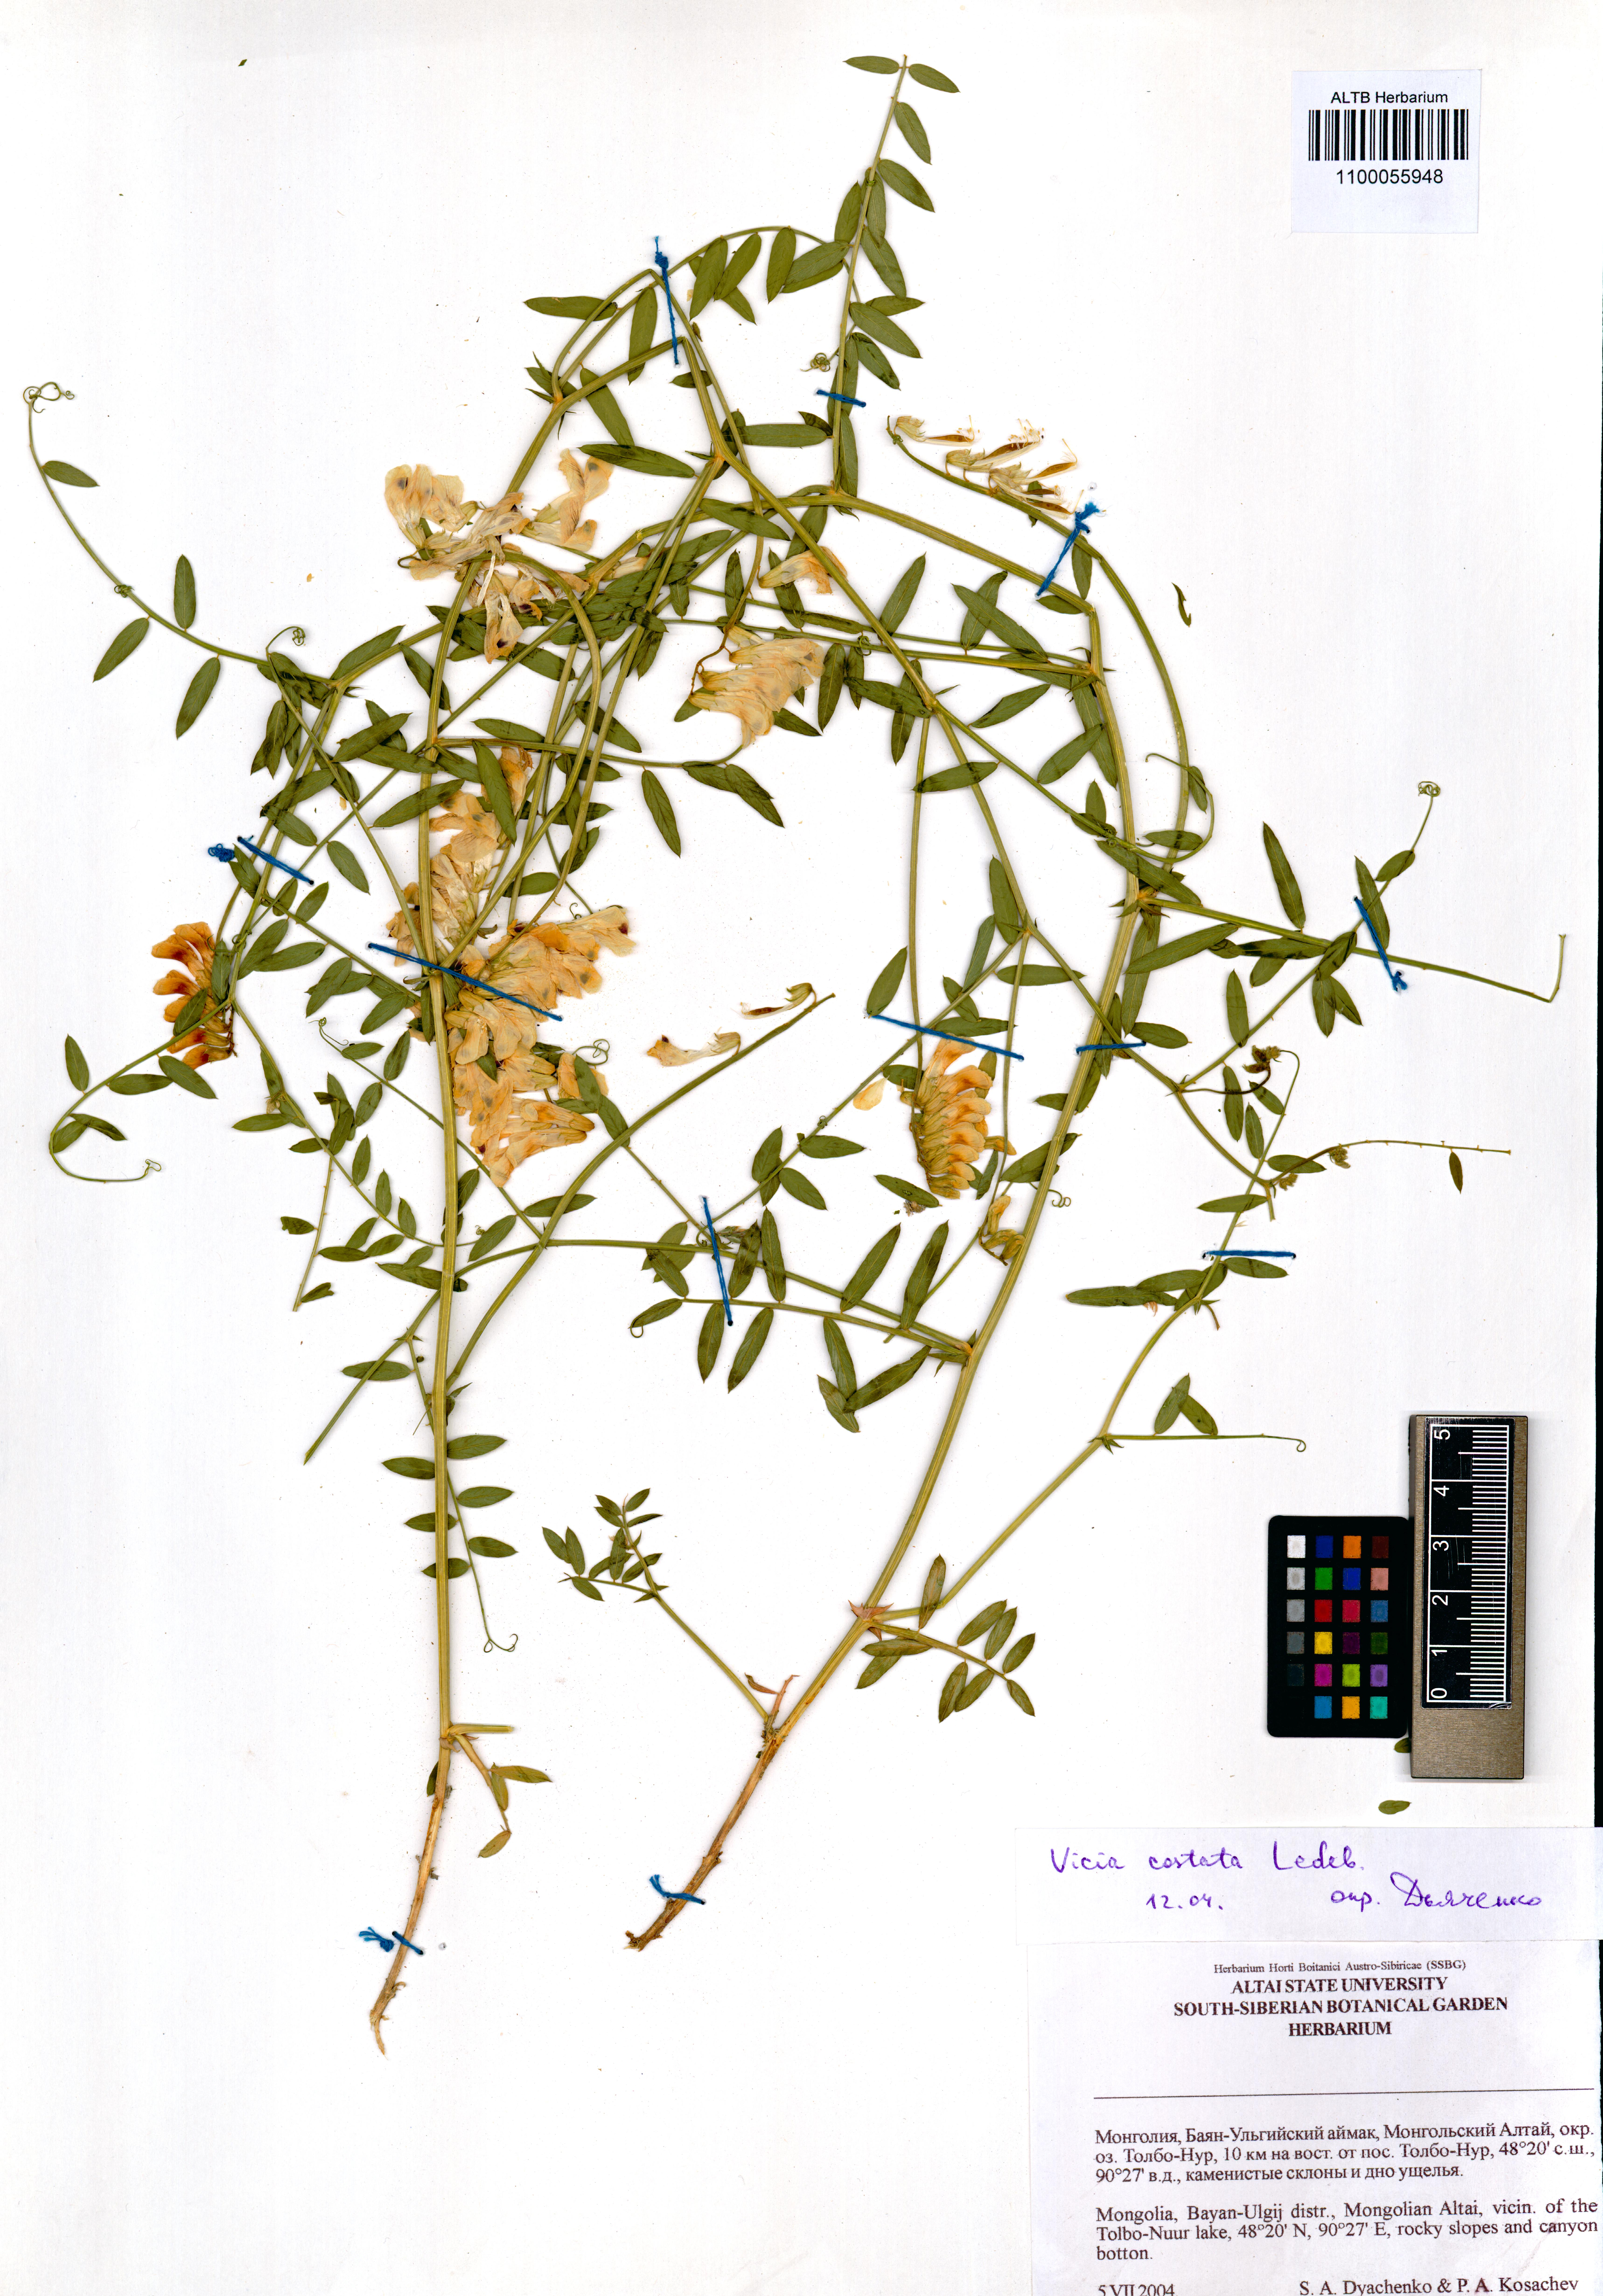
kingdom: Plantae
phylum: Tracheophyta
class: Magnoliopsida
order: Fabales
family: Fabaceae
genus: Vicia
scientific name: Vicia costata
